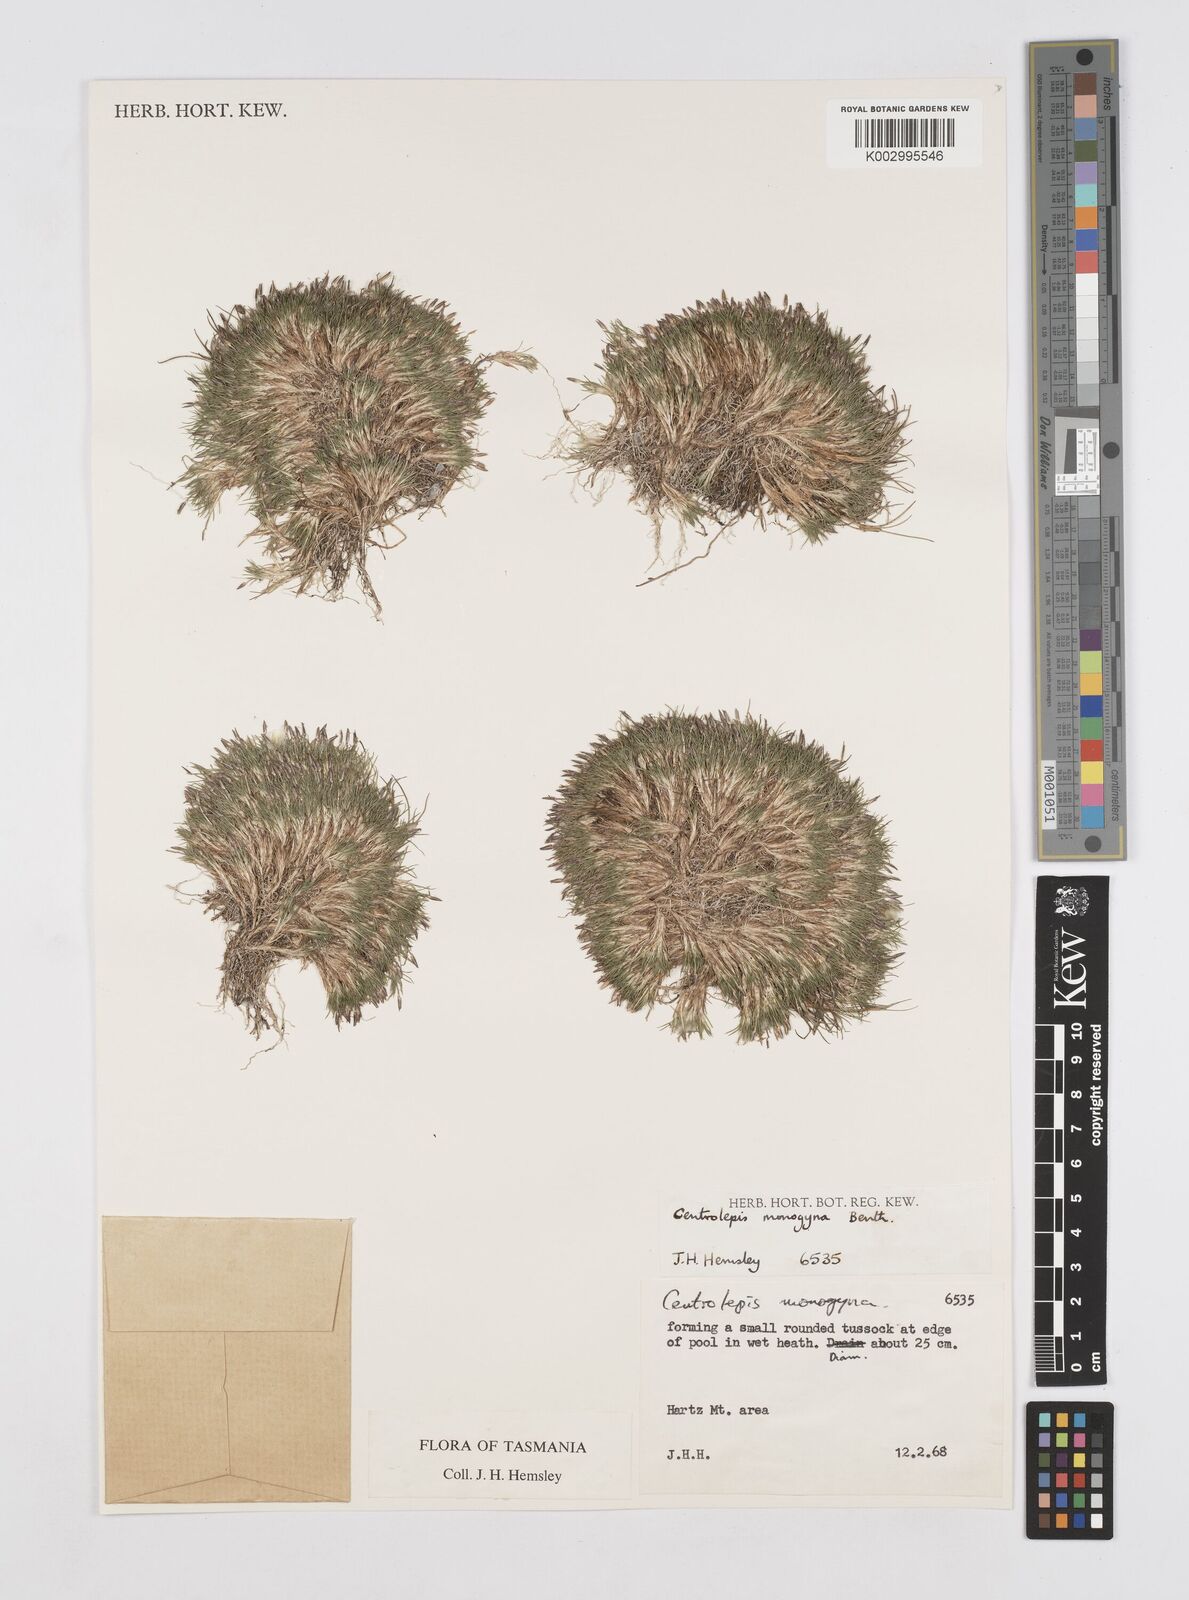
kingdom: Plantae
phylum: Tracheophyta
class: Liliopsida
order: Poales
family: Restionaceae
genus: Centrolepis
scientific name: Centrolepis monogyna
